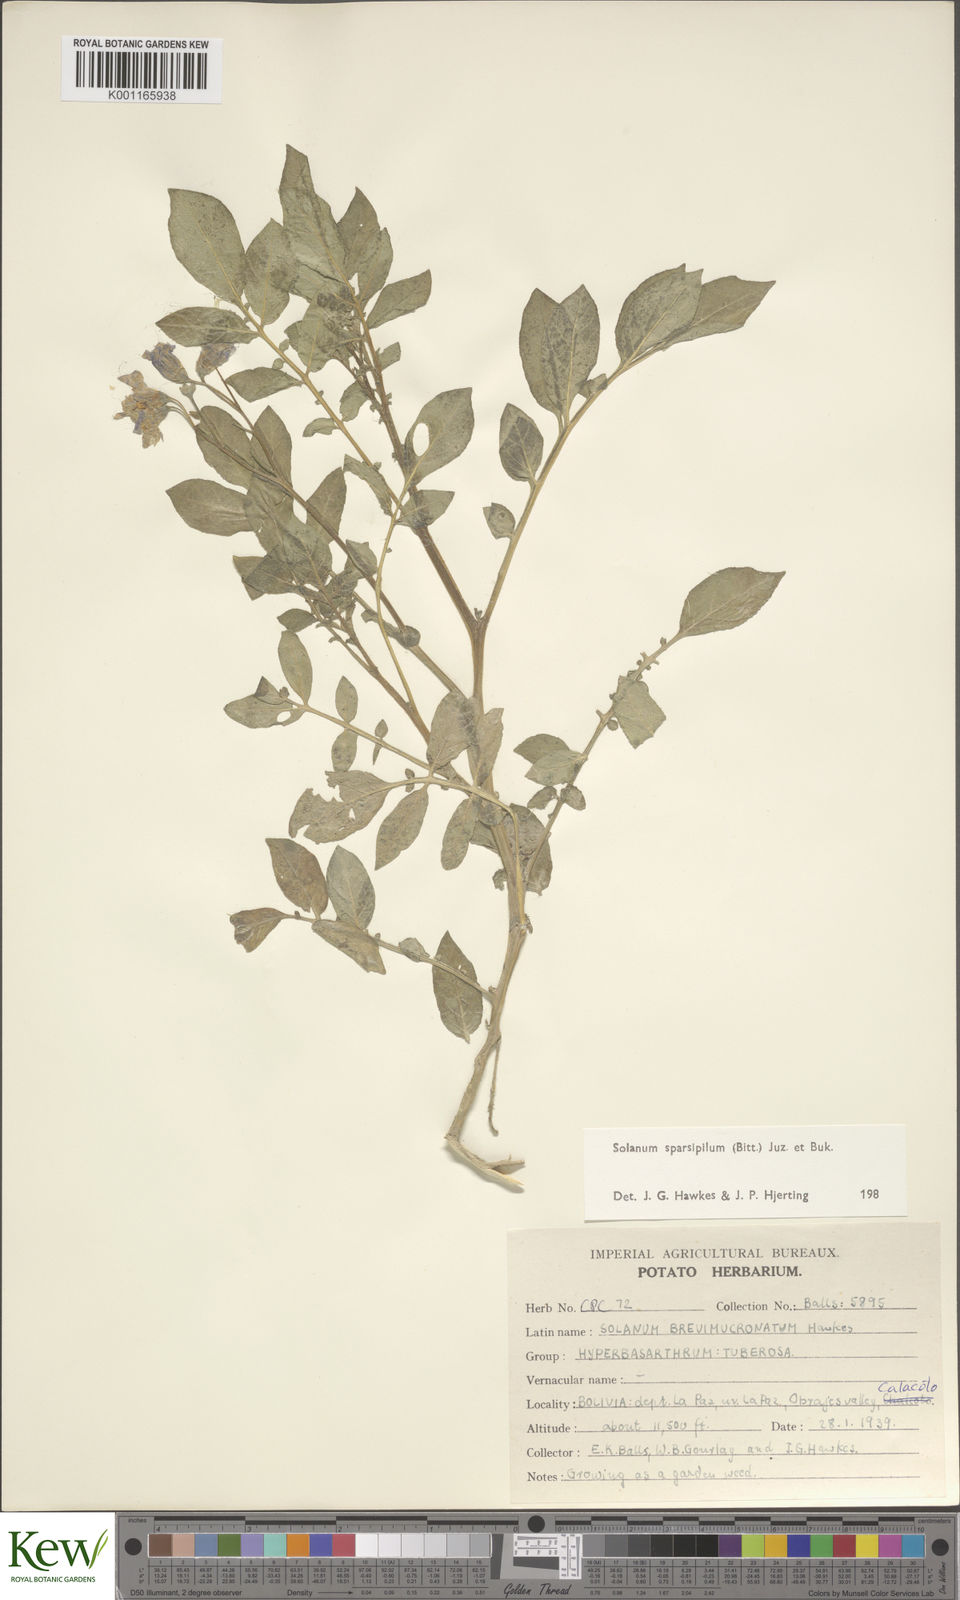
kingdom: Plantae
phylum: Tracheophyta
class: Magnoliopsida
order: Solanales
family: Solanaceae
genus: Solanum
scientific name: Solanum brevicaule
